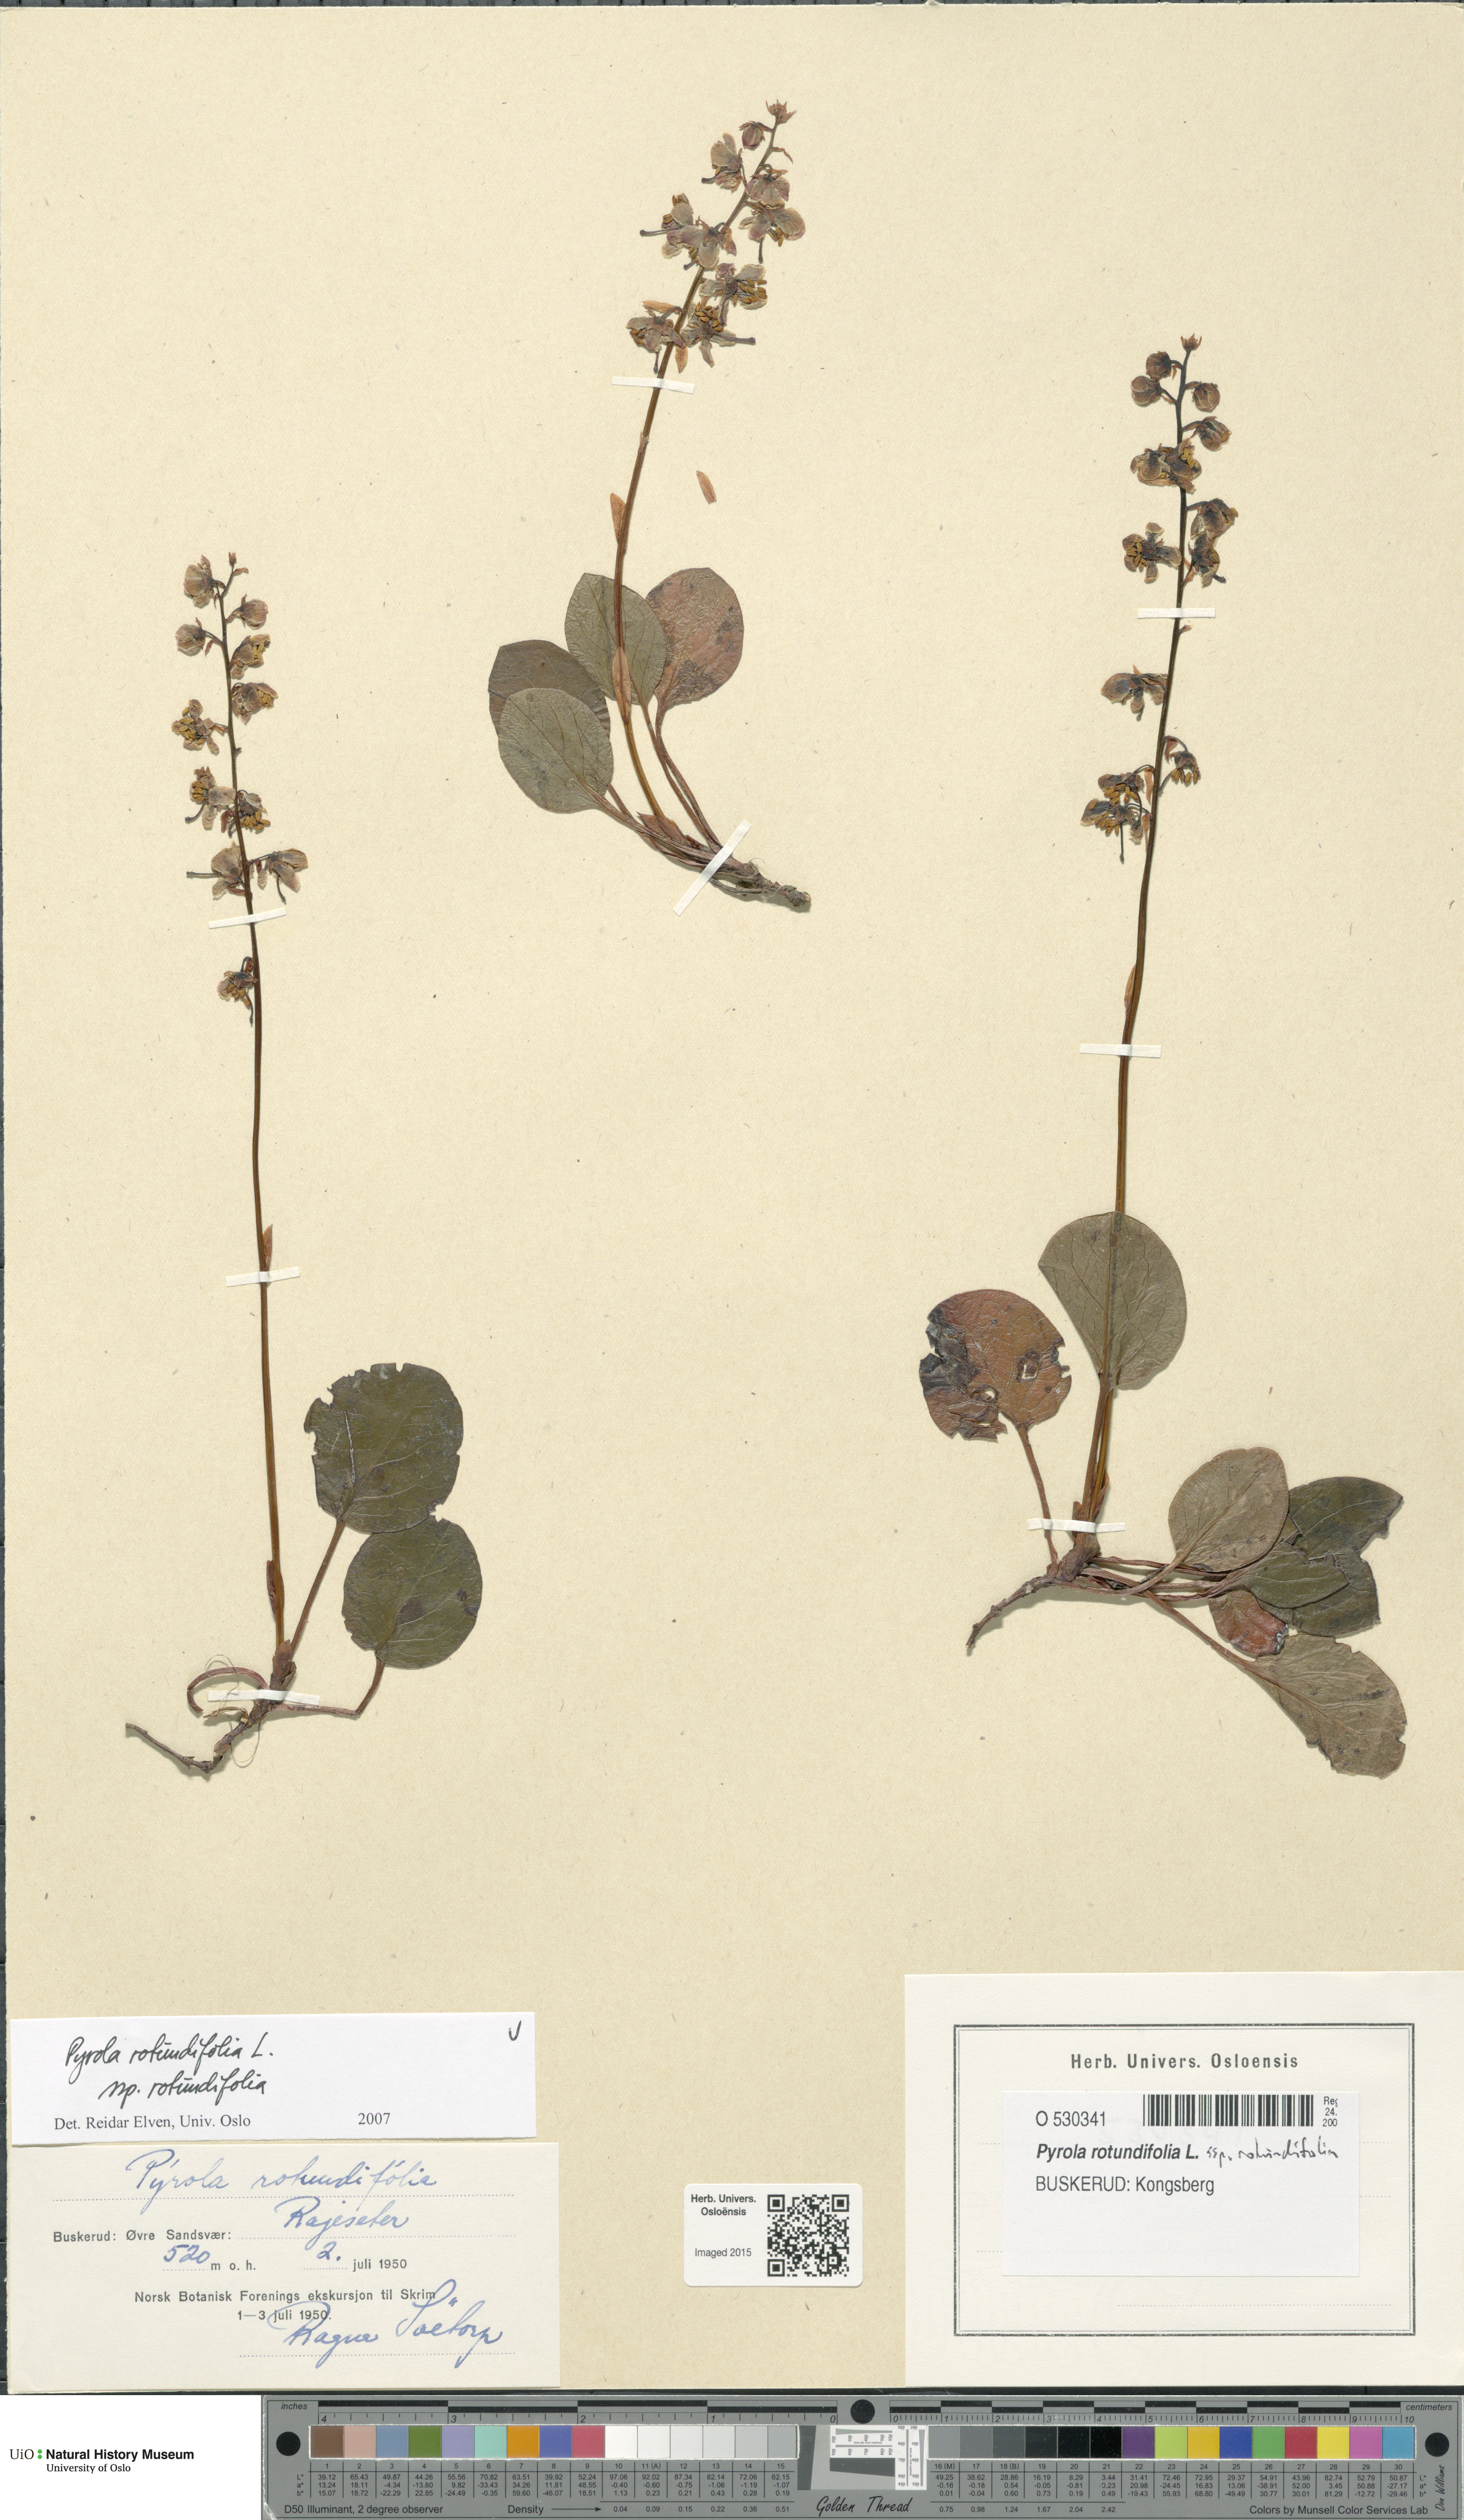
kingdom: Plantae
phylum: Tracheophyta
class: Magnoliopsida
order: Ericales
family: Ericaceae
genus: Pyrola
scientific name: Pyrola rotundifolia
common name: Round-leaved wintergreen
